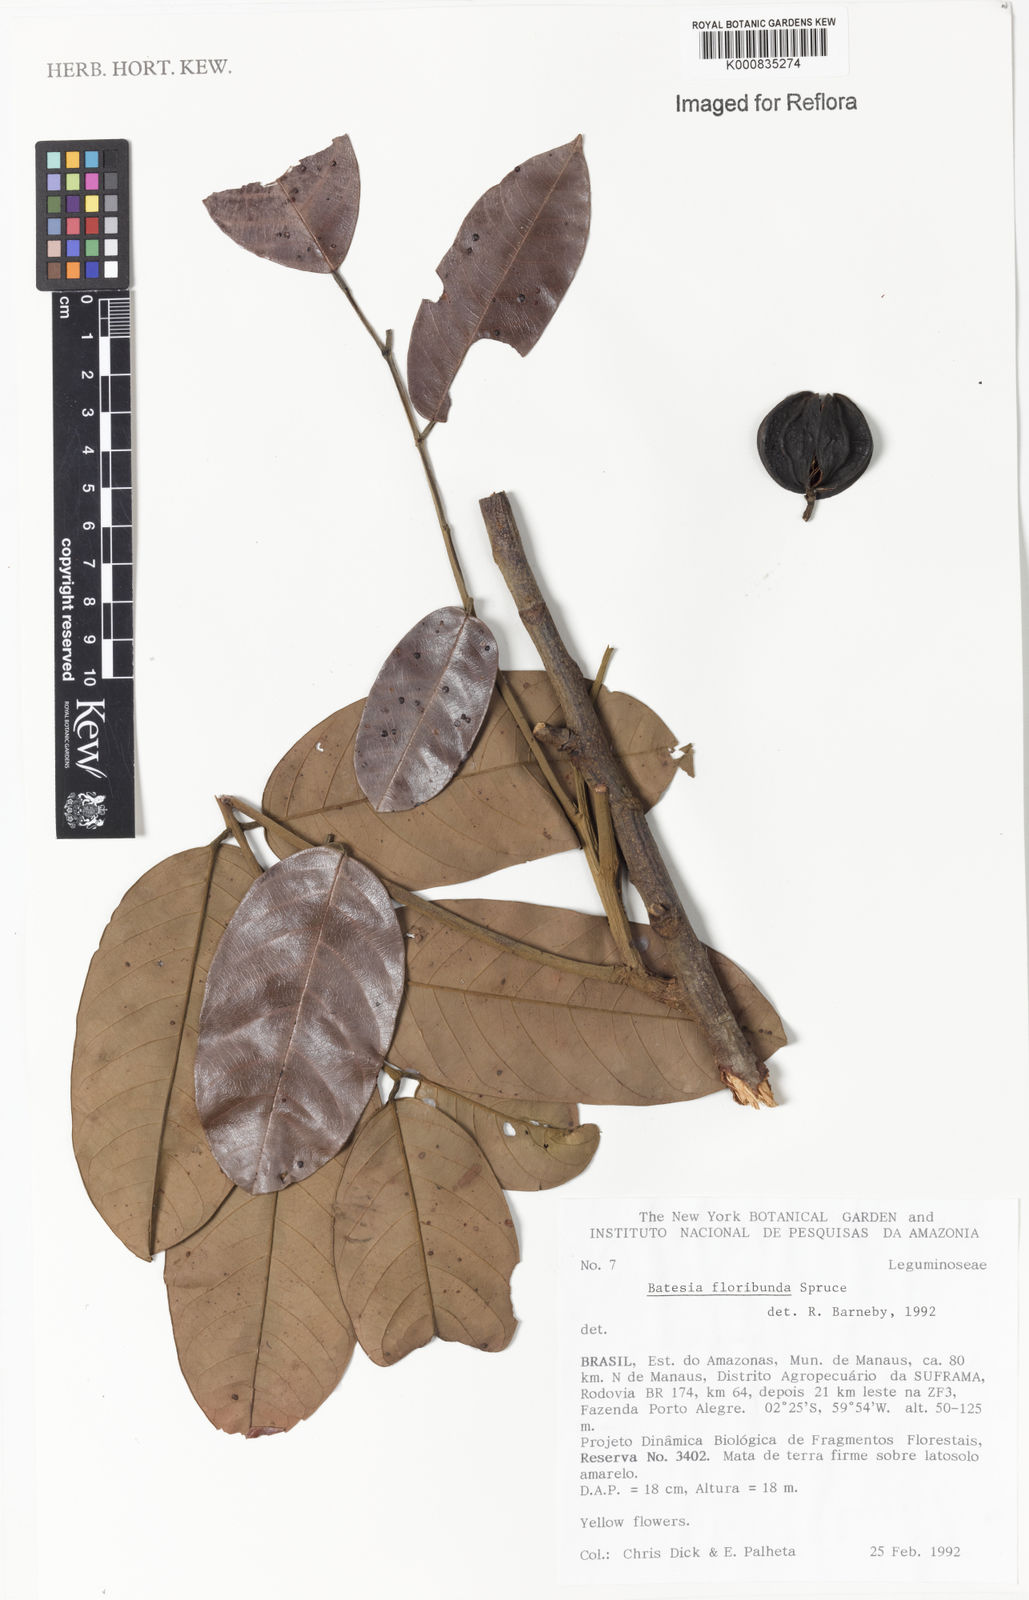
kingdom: Plantae
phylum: Tracheophyta
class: Magnoliopsida
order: Fabales
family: Fabaceae
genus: Batesia
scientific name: Batesia floribunda
